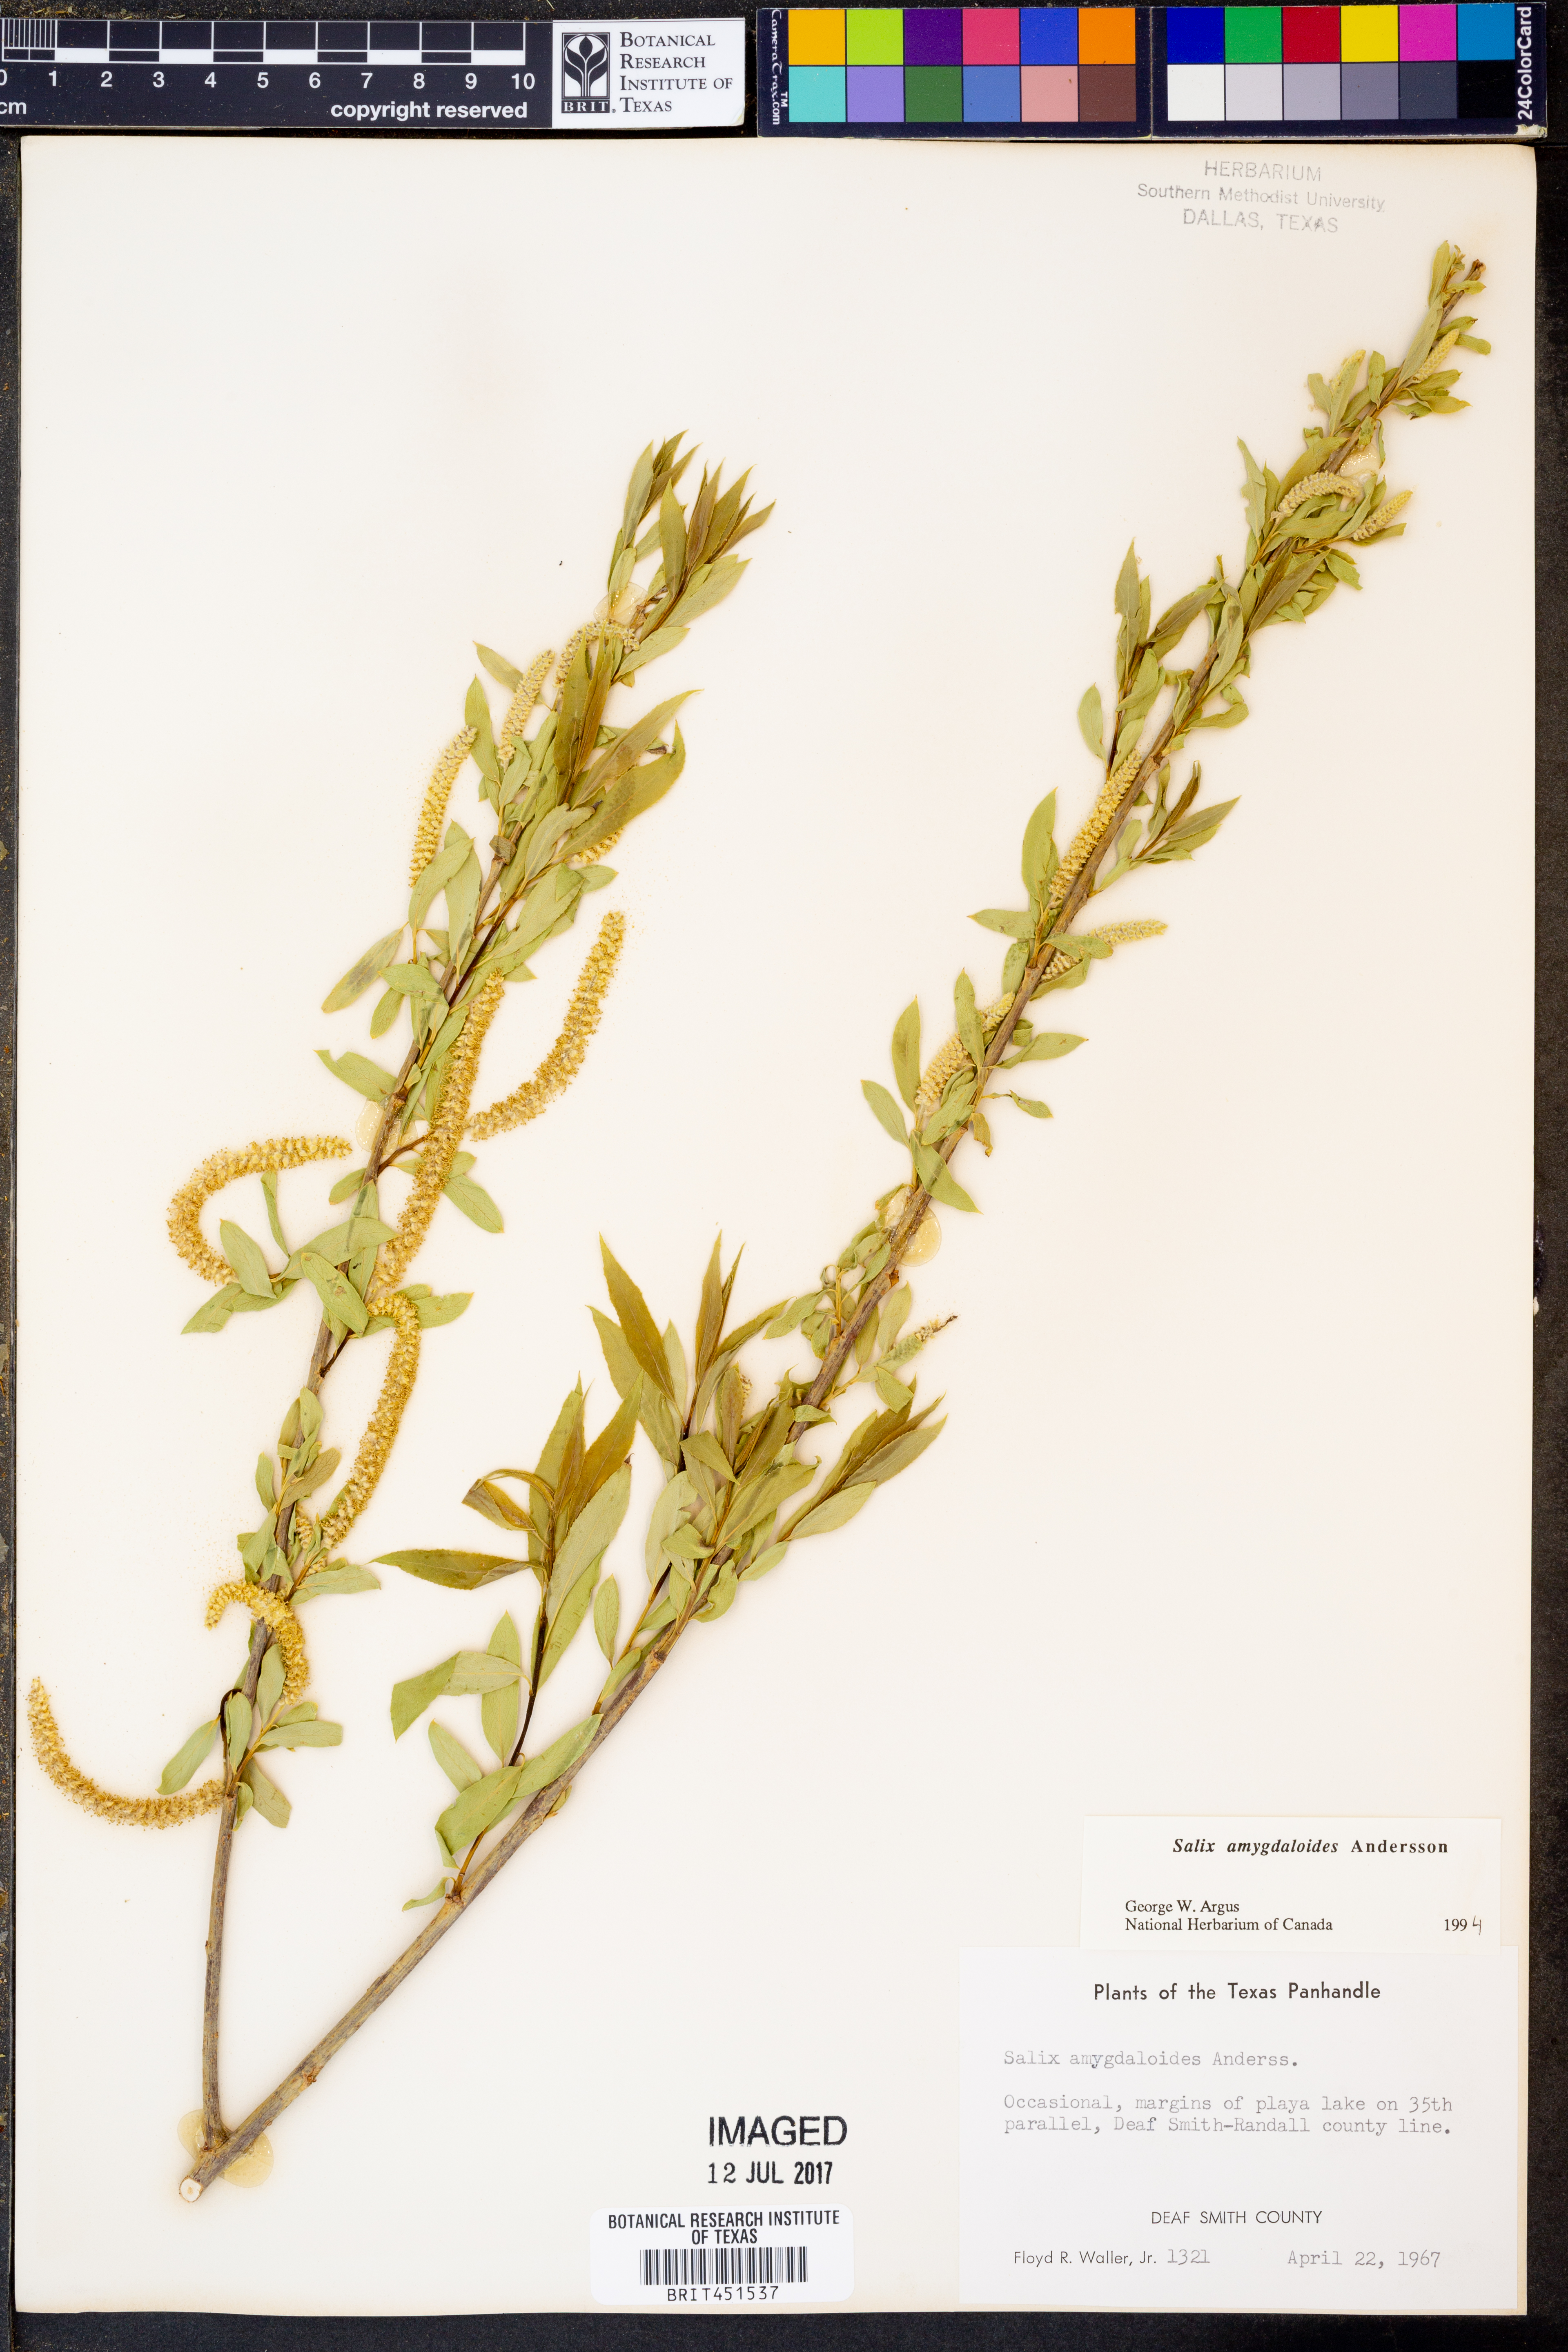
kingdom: Plantae
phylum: Tracheophyta
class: Magnoliopsida
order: Malpighiales
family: Salicaceae
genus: Salix
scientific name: Salix amygdaloides
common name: Peach leaf willow
